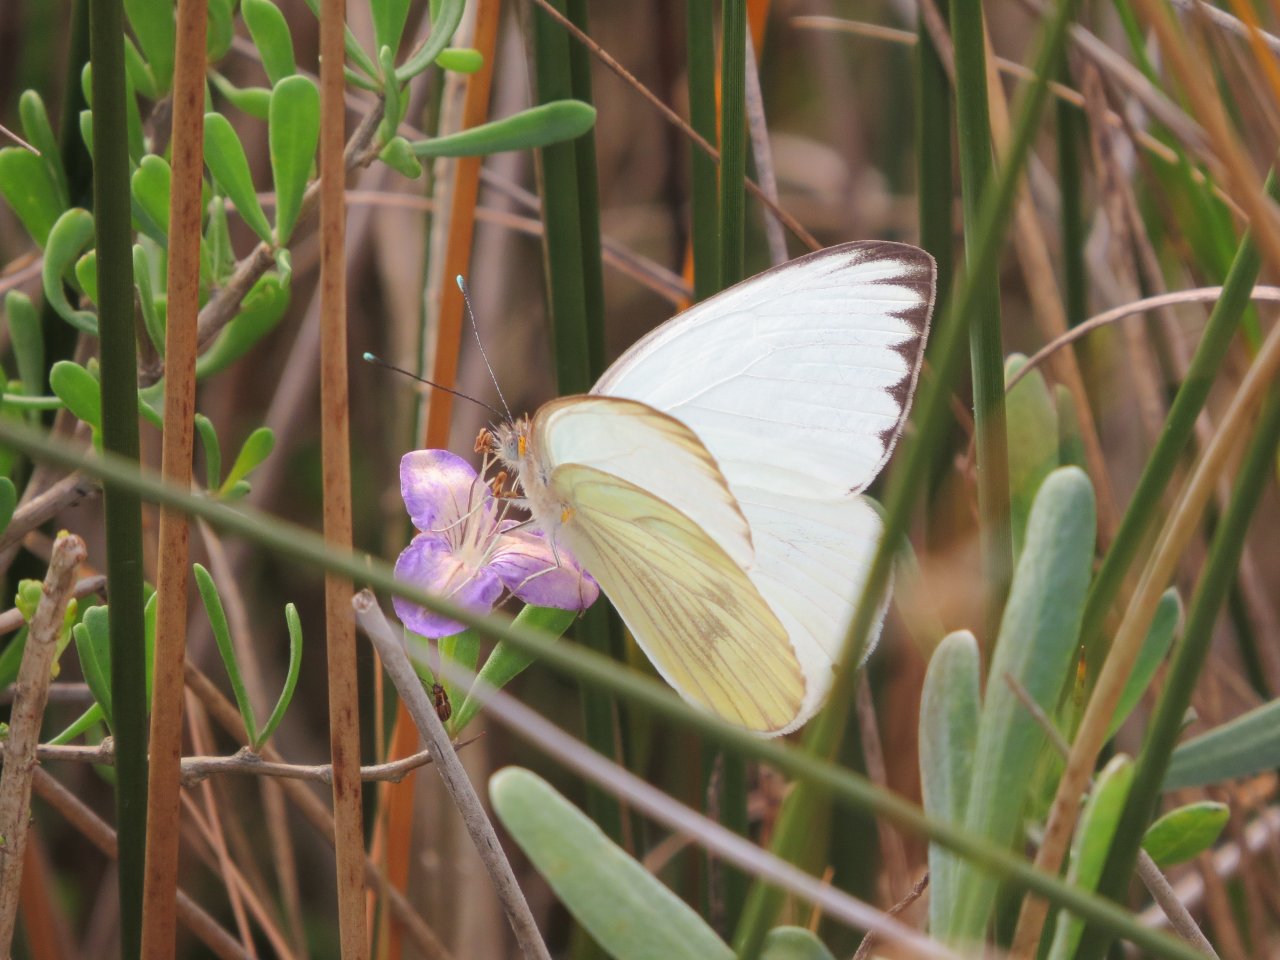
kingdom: Animalia
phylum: Arthropoda
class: Insecta
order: Lepidoptera
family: Pieridae
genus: Ascia
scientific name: Ascia monuste
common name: Great Southern White
